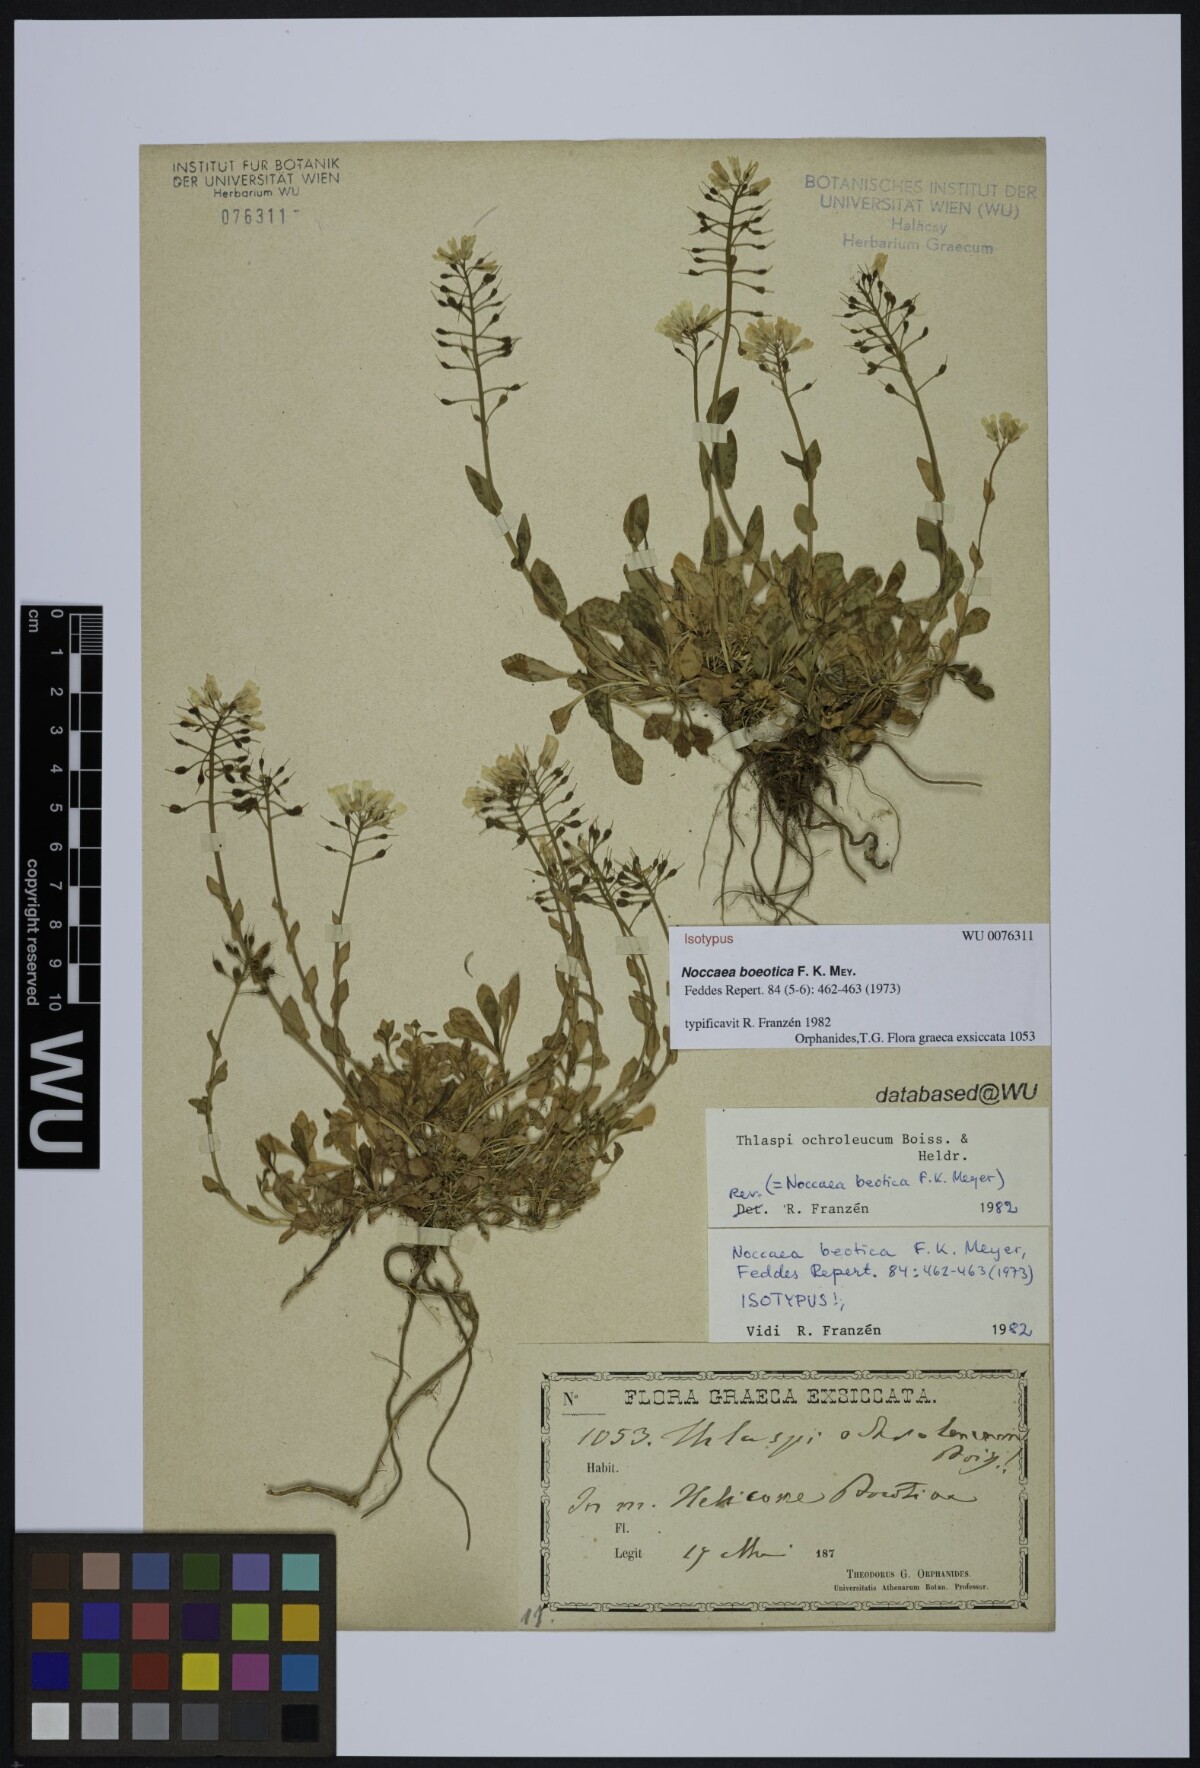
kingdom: Plantae
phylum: Tracheophyta
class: Magnoliopsida
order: Brassicales
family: Brassicaceae
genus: Noccaea
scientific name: Noccaea boeotica
